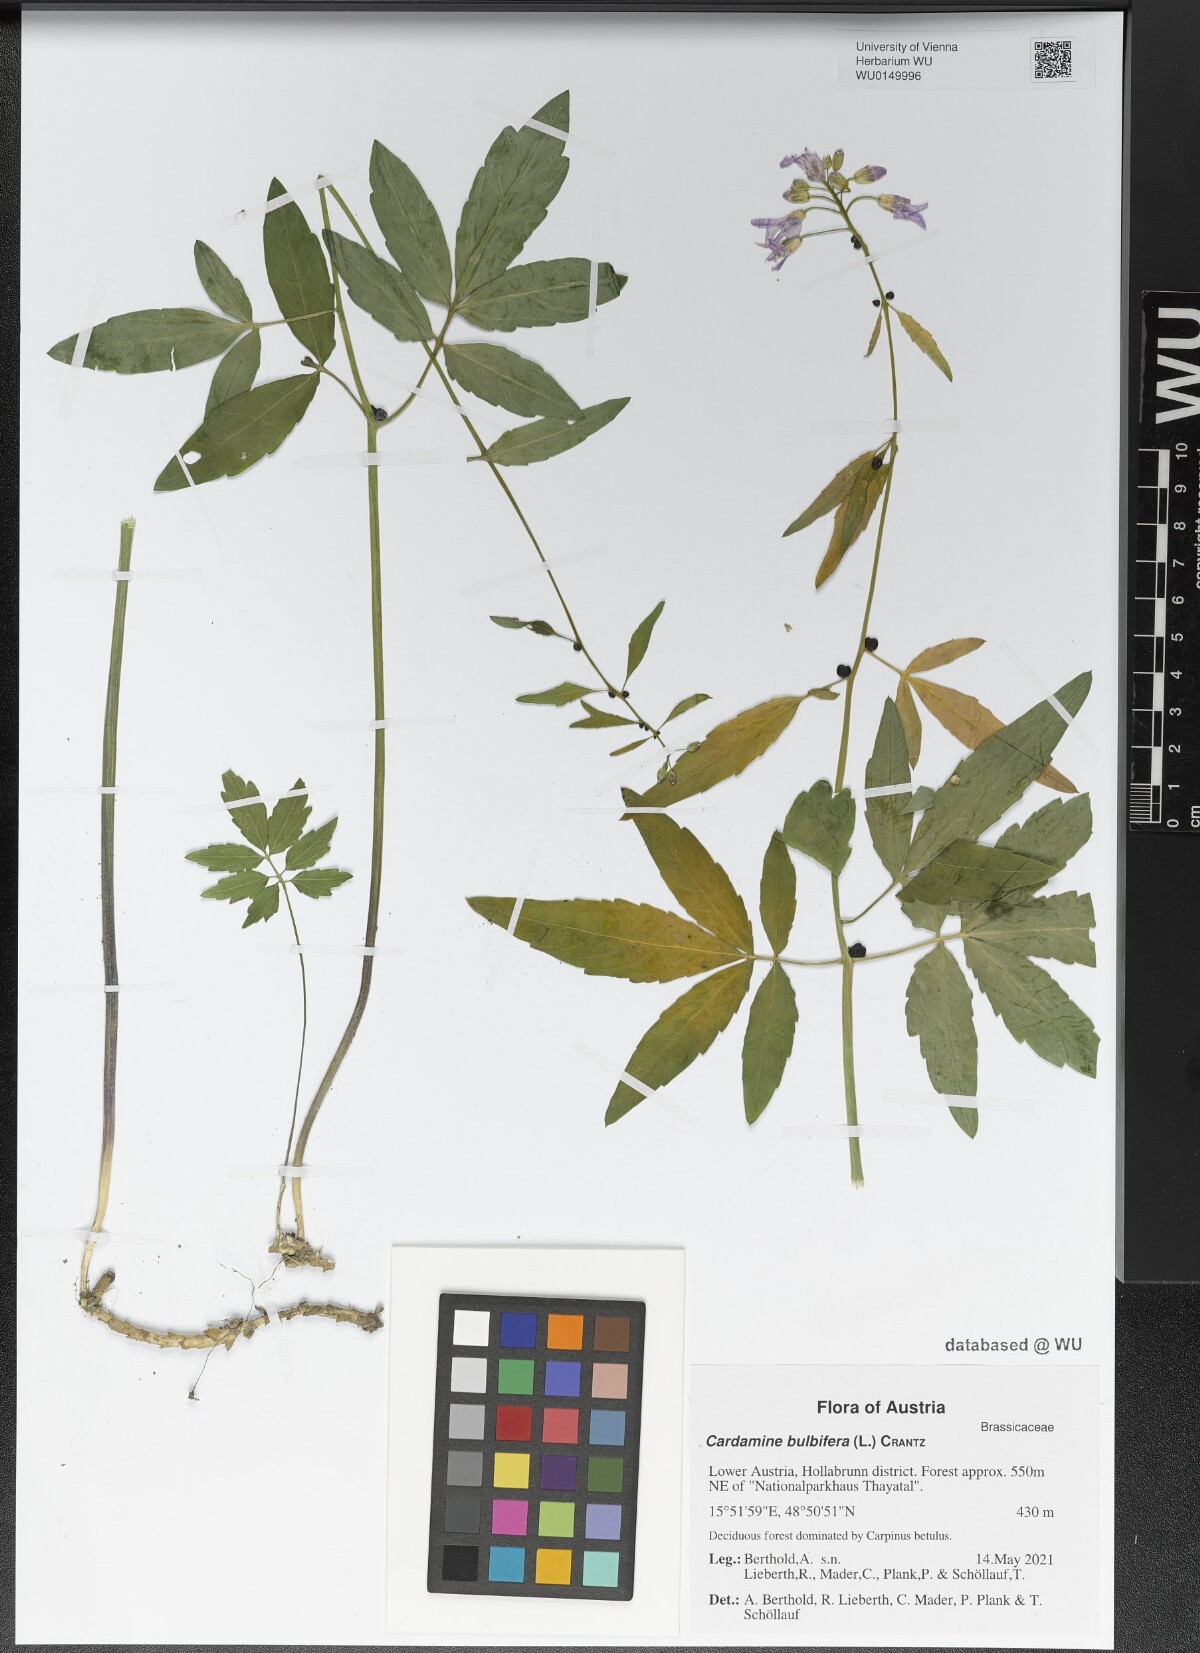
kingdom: Plantae
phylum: Tracheophyta
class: Magnoliopsida
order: Brassicales
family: Brassicaceae
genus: Cardamine
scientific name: Cardamine bulbifera
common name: Coralroot bittercress
